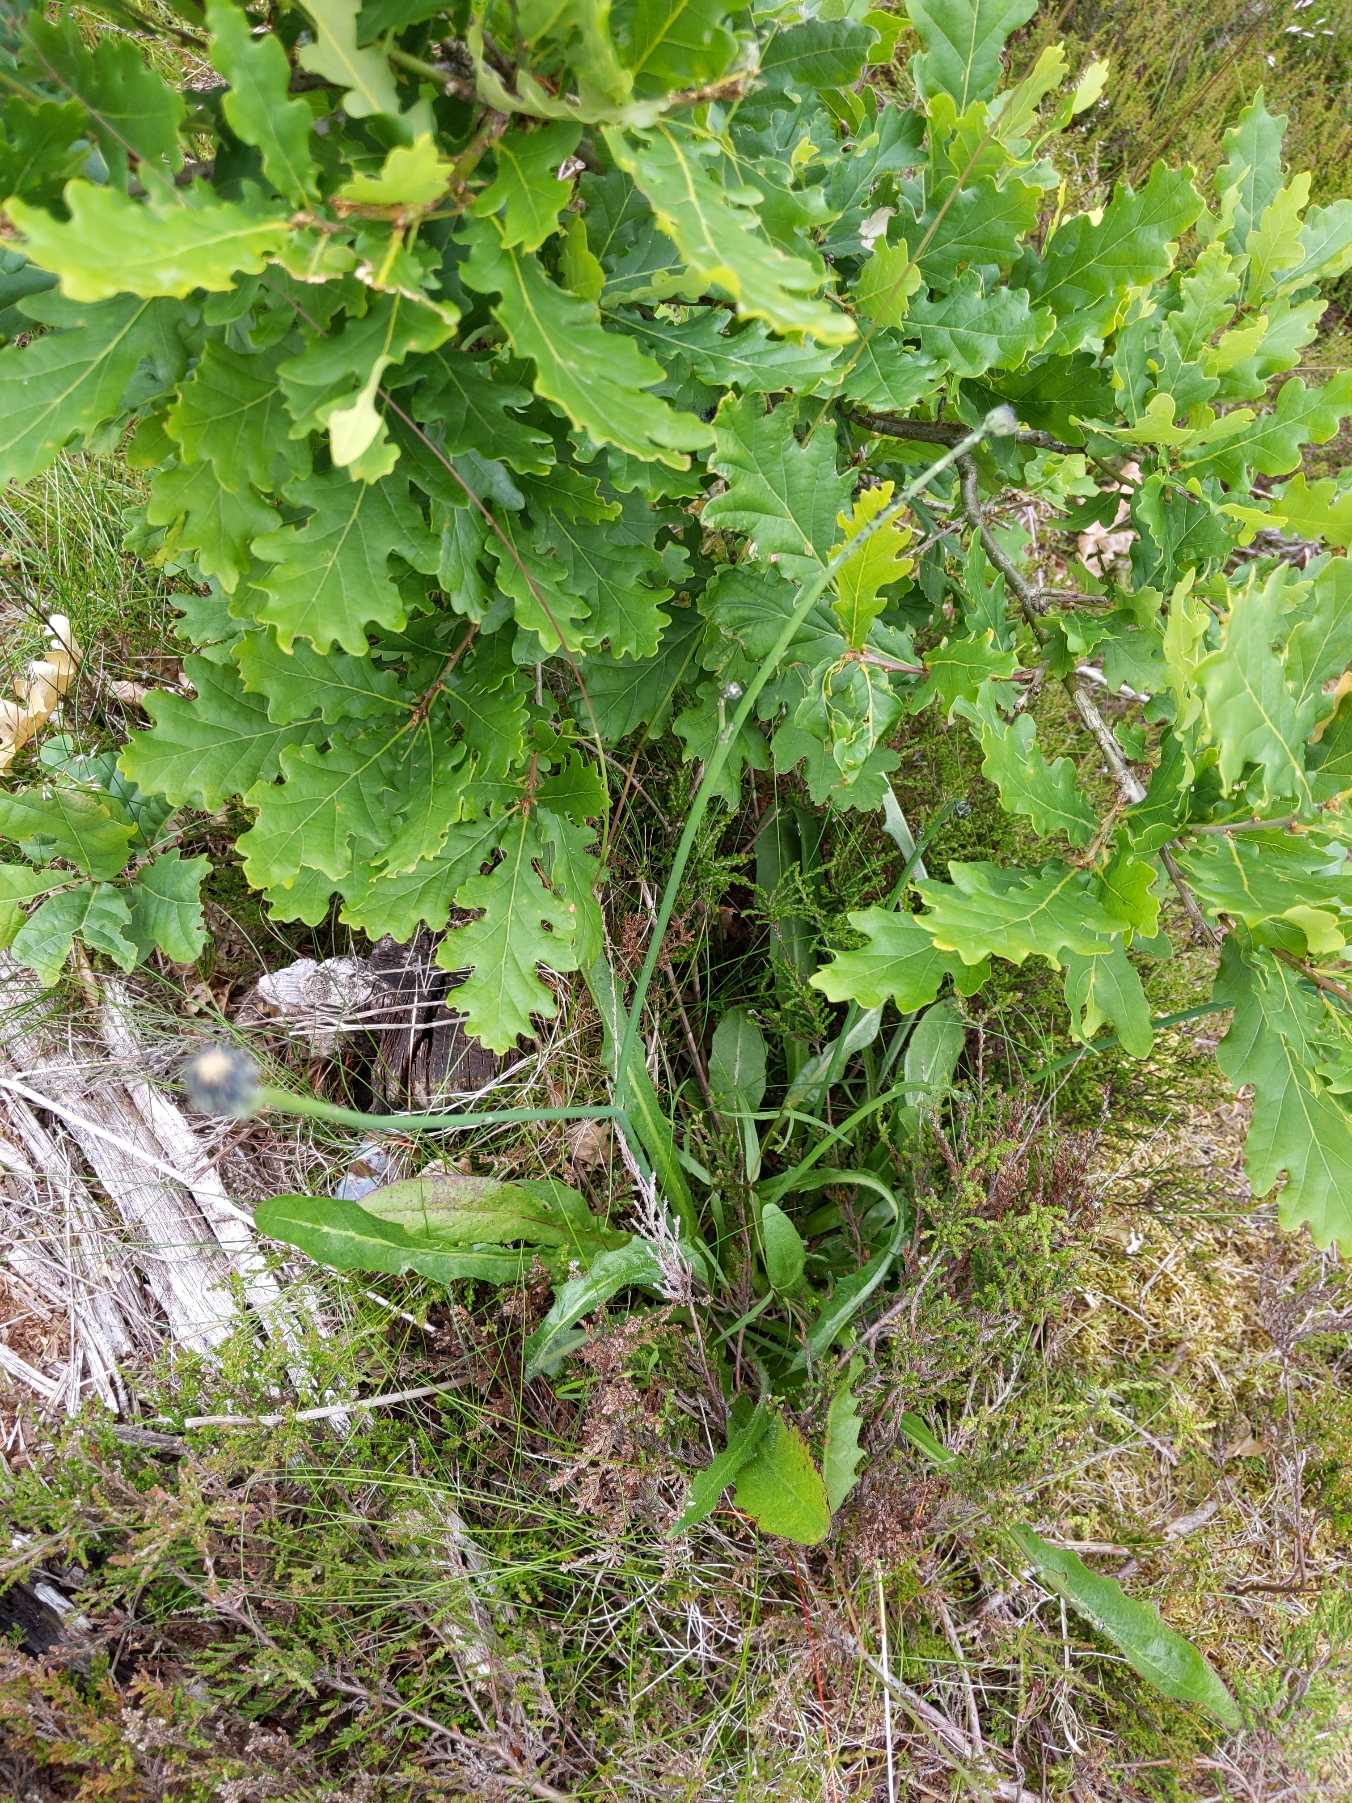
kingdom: Plantae
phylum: Tracheophyta
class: Magnoliopsida
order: Asterales
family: Asteraceae
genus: Hypochaeris
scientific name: Hypochaeris radicata
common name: Almindelig kongepen
